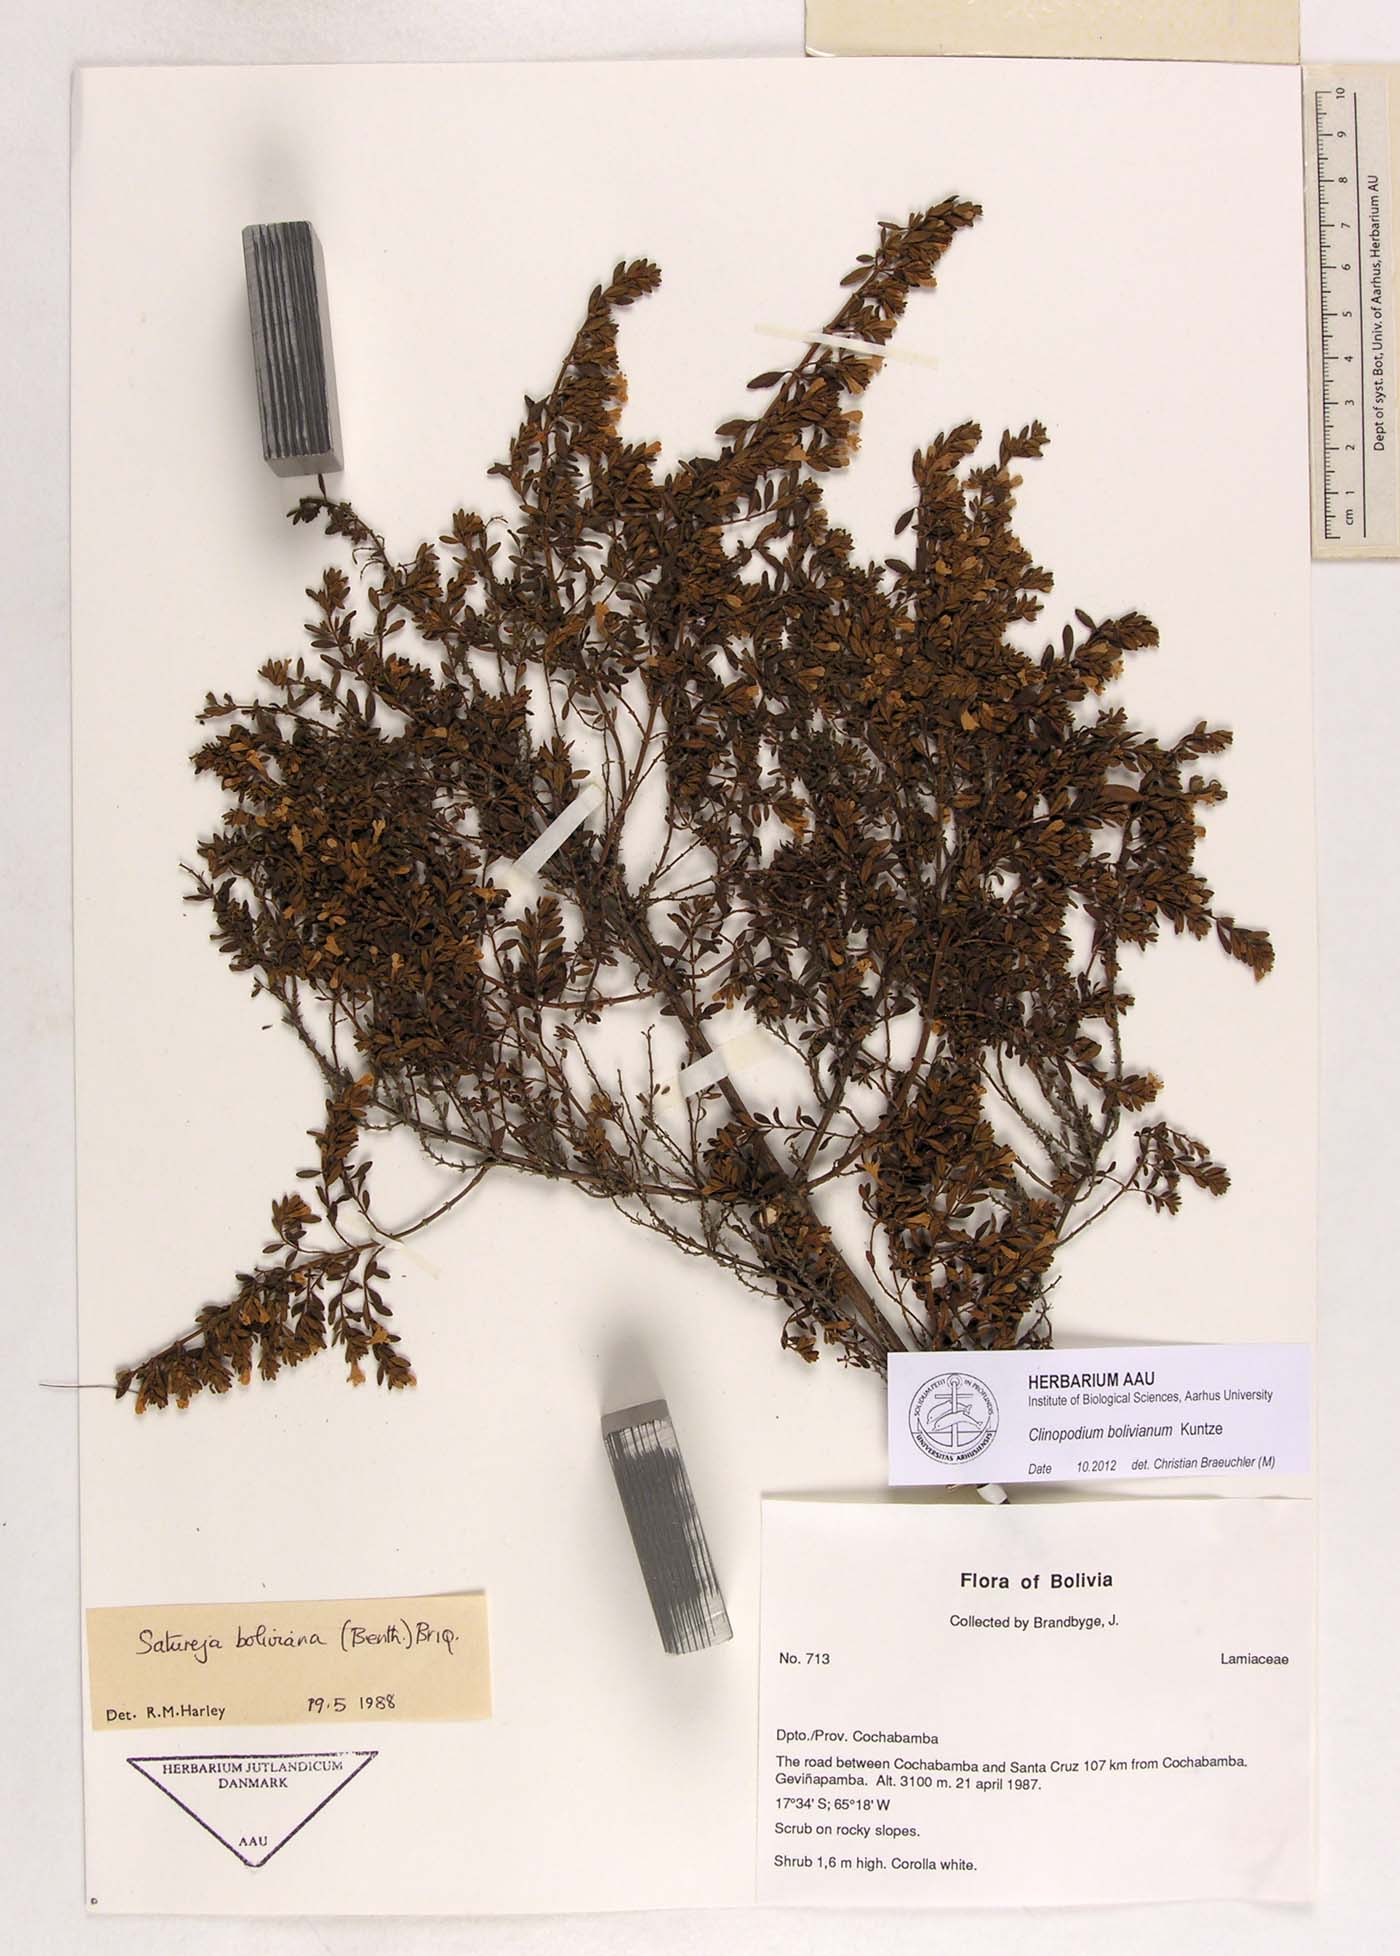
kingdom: Plantae
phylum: Tracheophyta
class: Magnoliopsida
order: Lamiales
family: Lamiaceae
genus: Clinopodium
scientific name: Clinopodium bolivianum
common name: Inca muña
